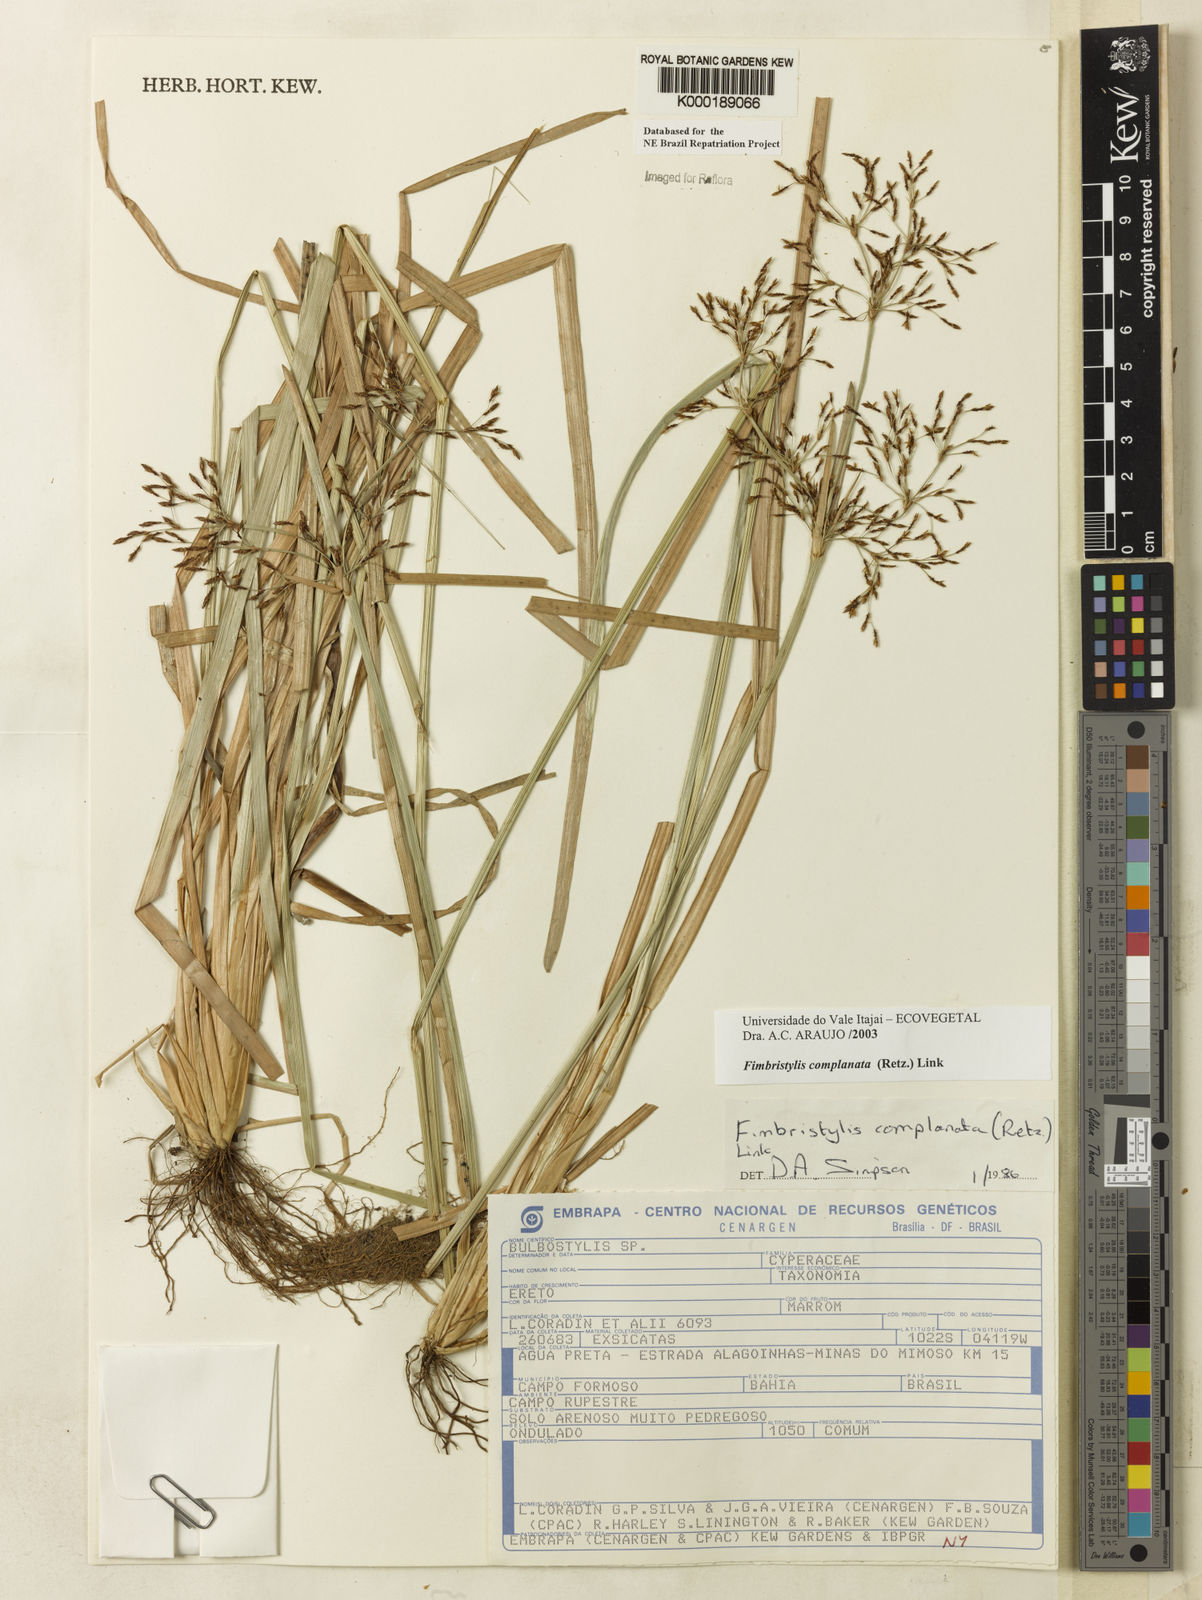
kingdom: Plantae
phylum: Tracheophyta
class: Liliopsida
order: Poales
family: Cyperaceae
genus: Fimbristylis
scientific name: Fimbristylis complanata
